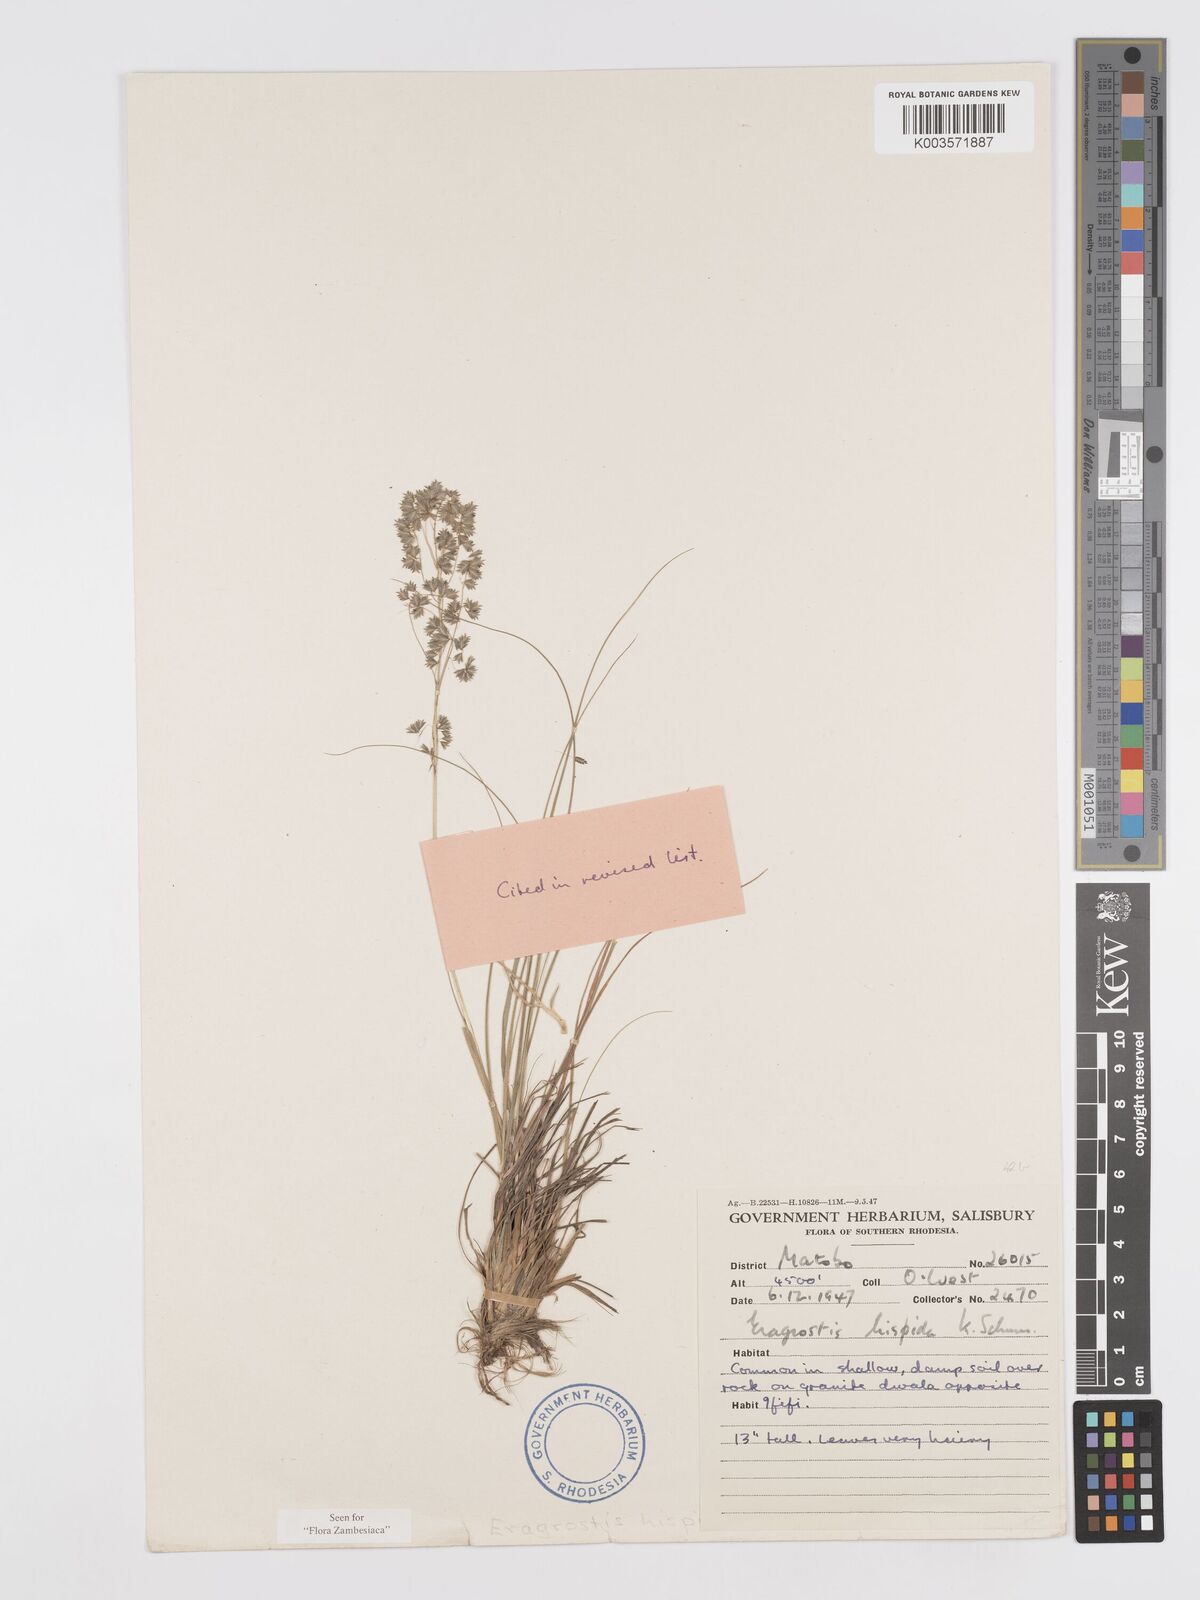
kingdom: Plantae
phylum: Tracheophyta
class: Liliopsida
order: Poales
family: Poaceae
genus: Eragrostis
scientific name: Eragrostis hispida
